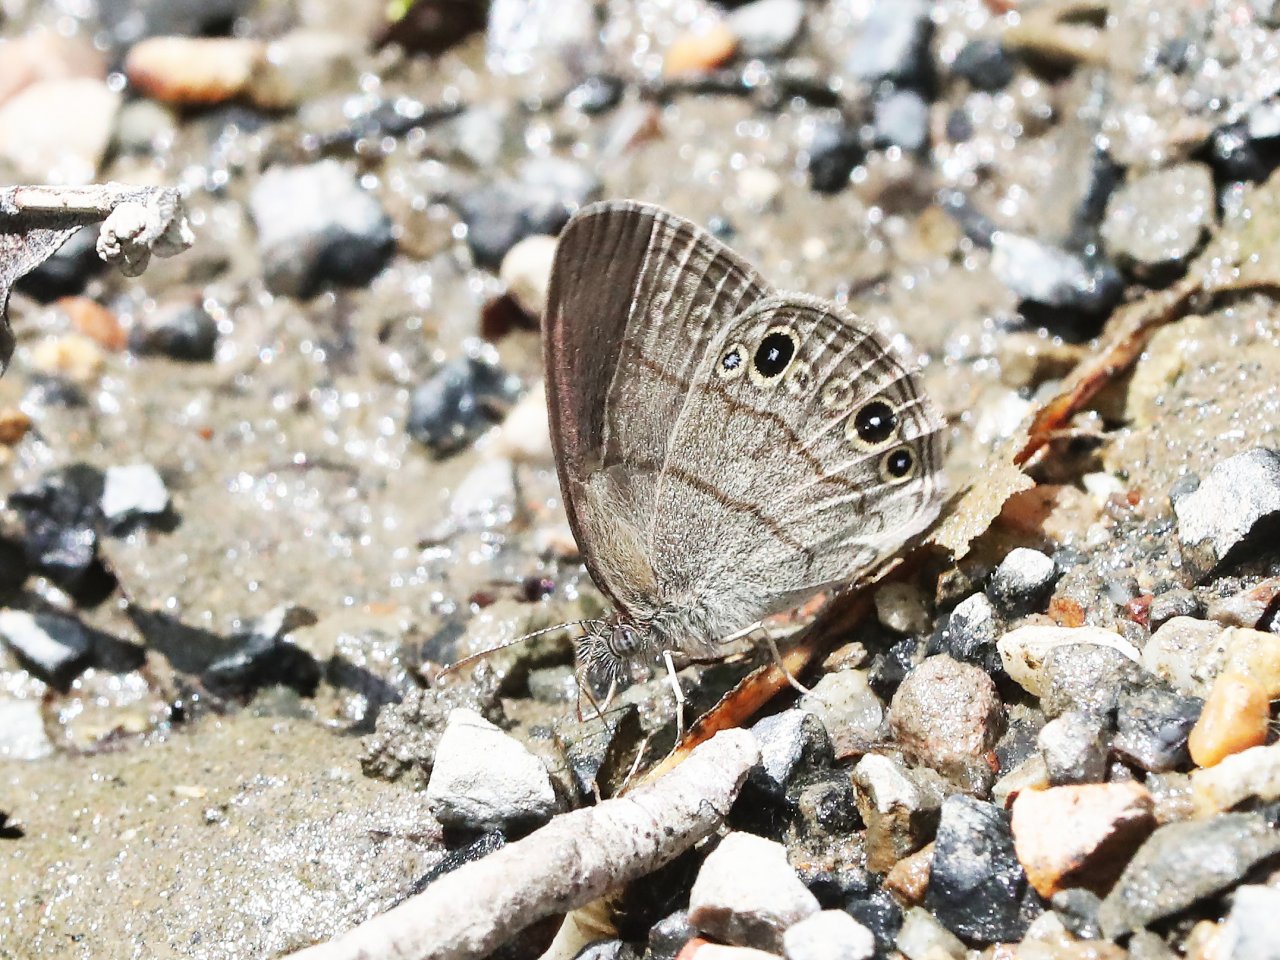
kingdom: Animalia
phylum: Arthropoda
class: Insecta
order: Lepidoptera
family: Nymphalidae
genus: Hermeuptychia
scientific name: Hermeuptychia hermes
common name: Carolina Satyr
